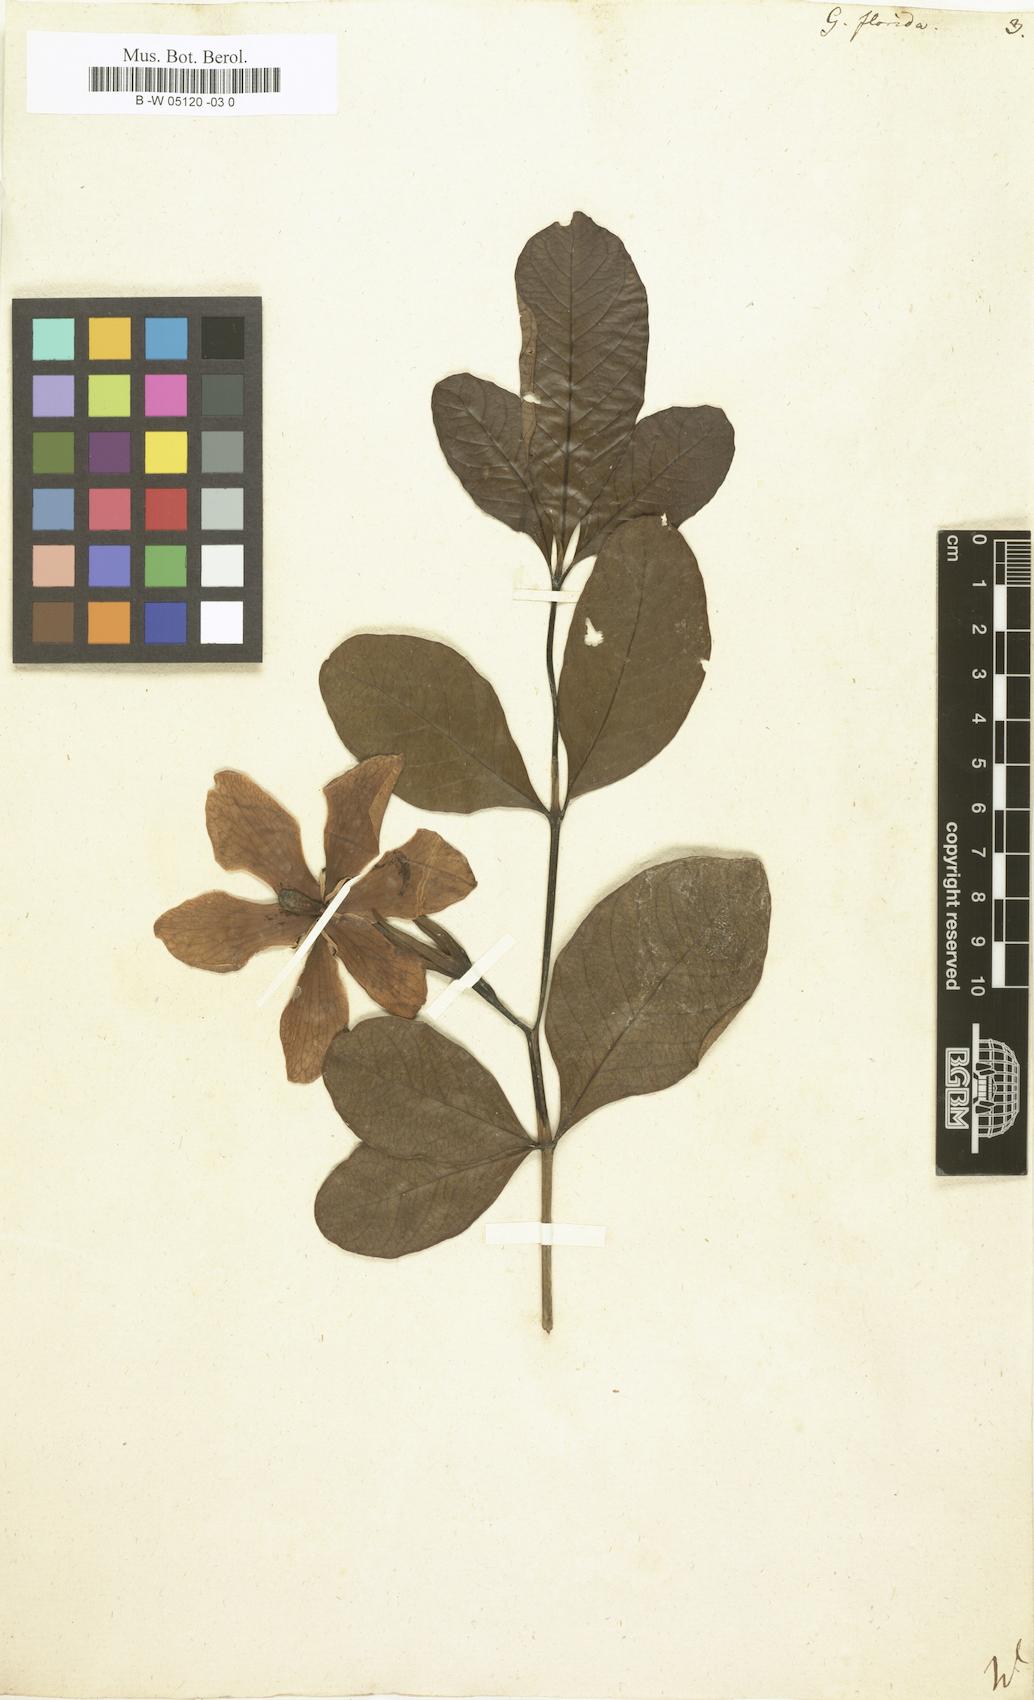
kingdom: Plantae
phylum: Tracheophyta
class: Magnoliopsida
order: Gentianales
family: Rubiaceae
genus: Gardenia
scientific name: Gardenia jasminoides
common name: Cape-jasmine
